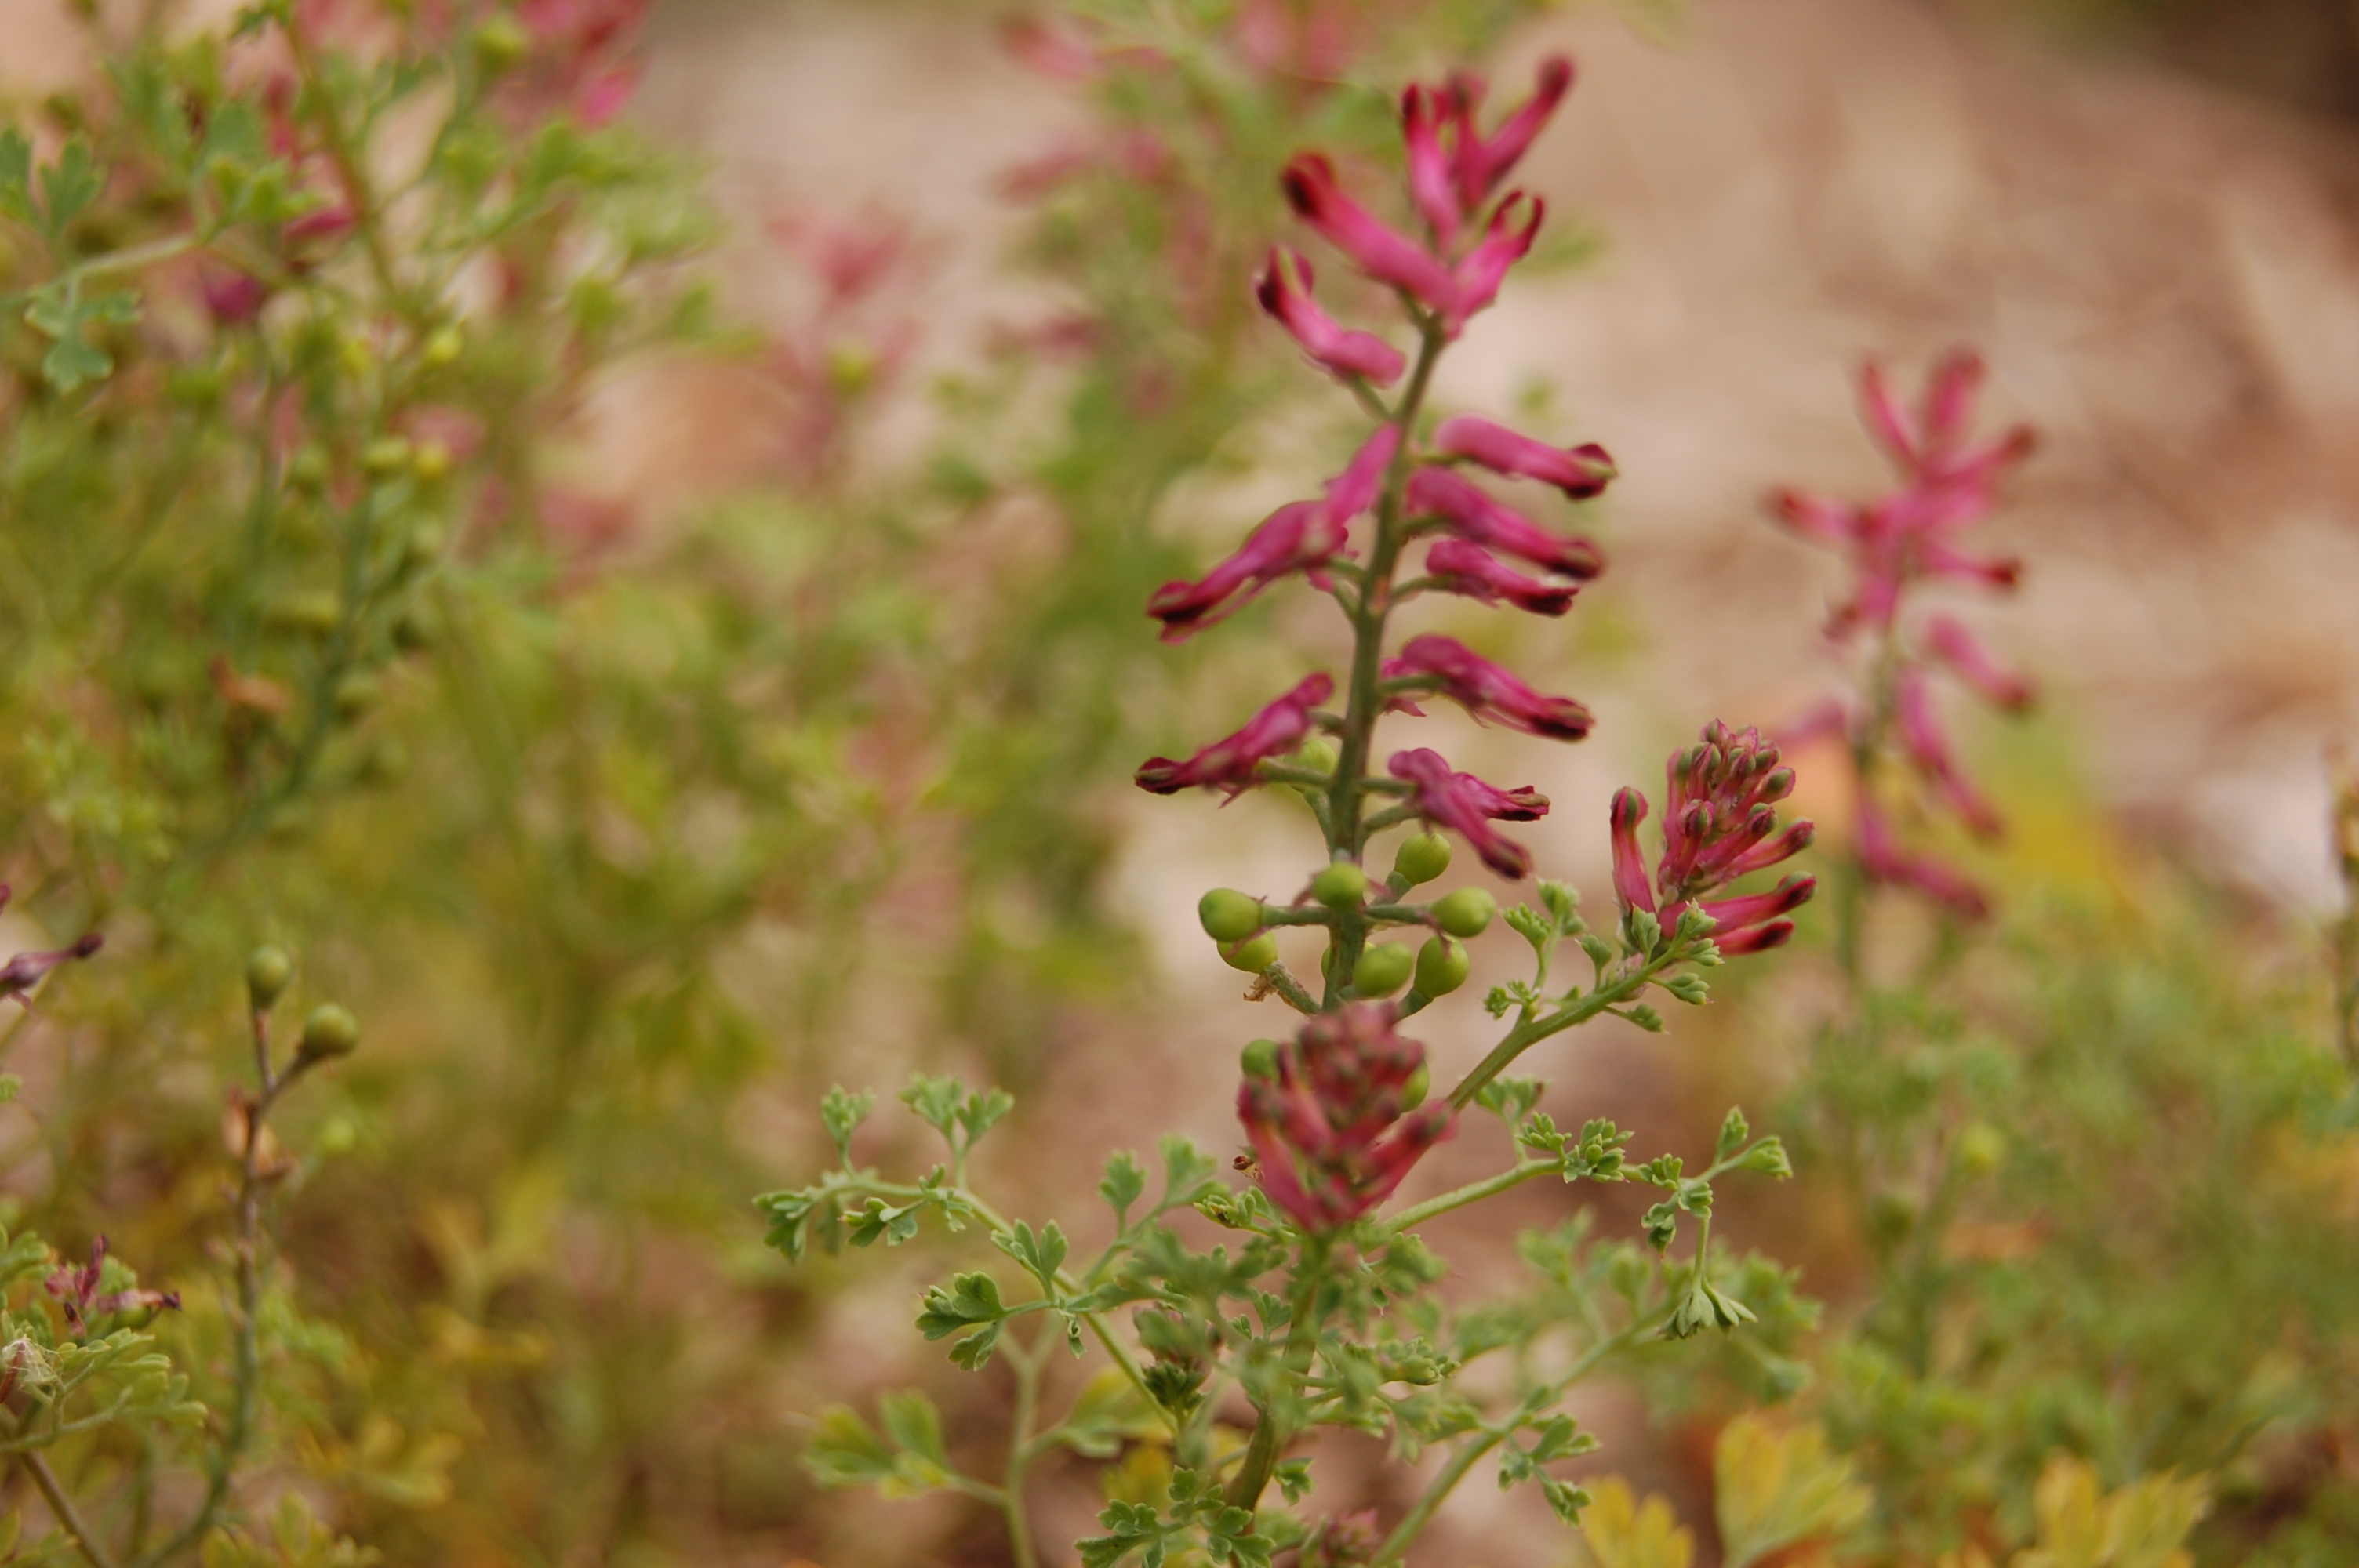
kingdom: Plantae
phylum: Tracheophyta
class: Magnoliopsida
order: Ranunculales
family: Papaveraceae
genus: Fumaria
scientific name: Fumaria officinalis
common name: Common fumitory
